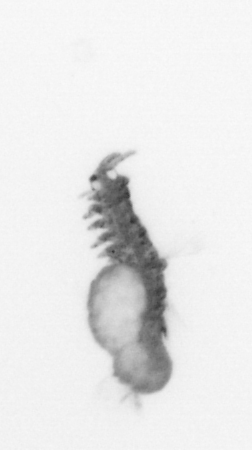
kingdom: Animalia
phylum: Annelida
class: Polychaeta
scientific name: Polychaeta
